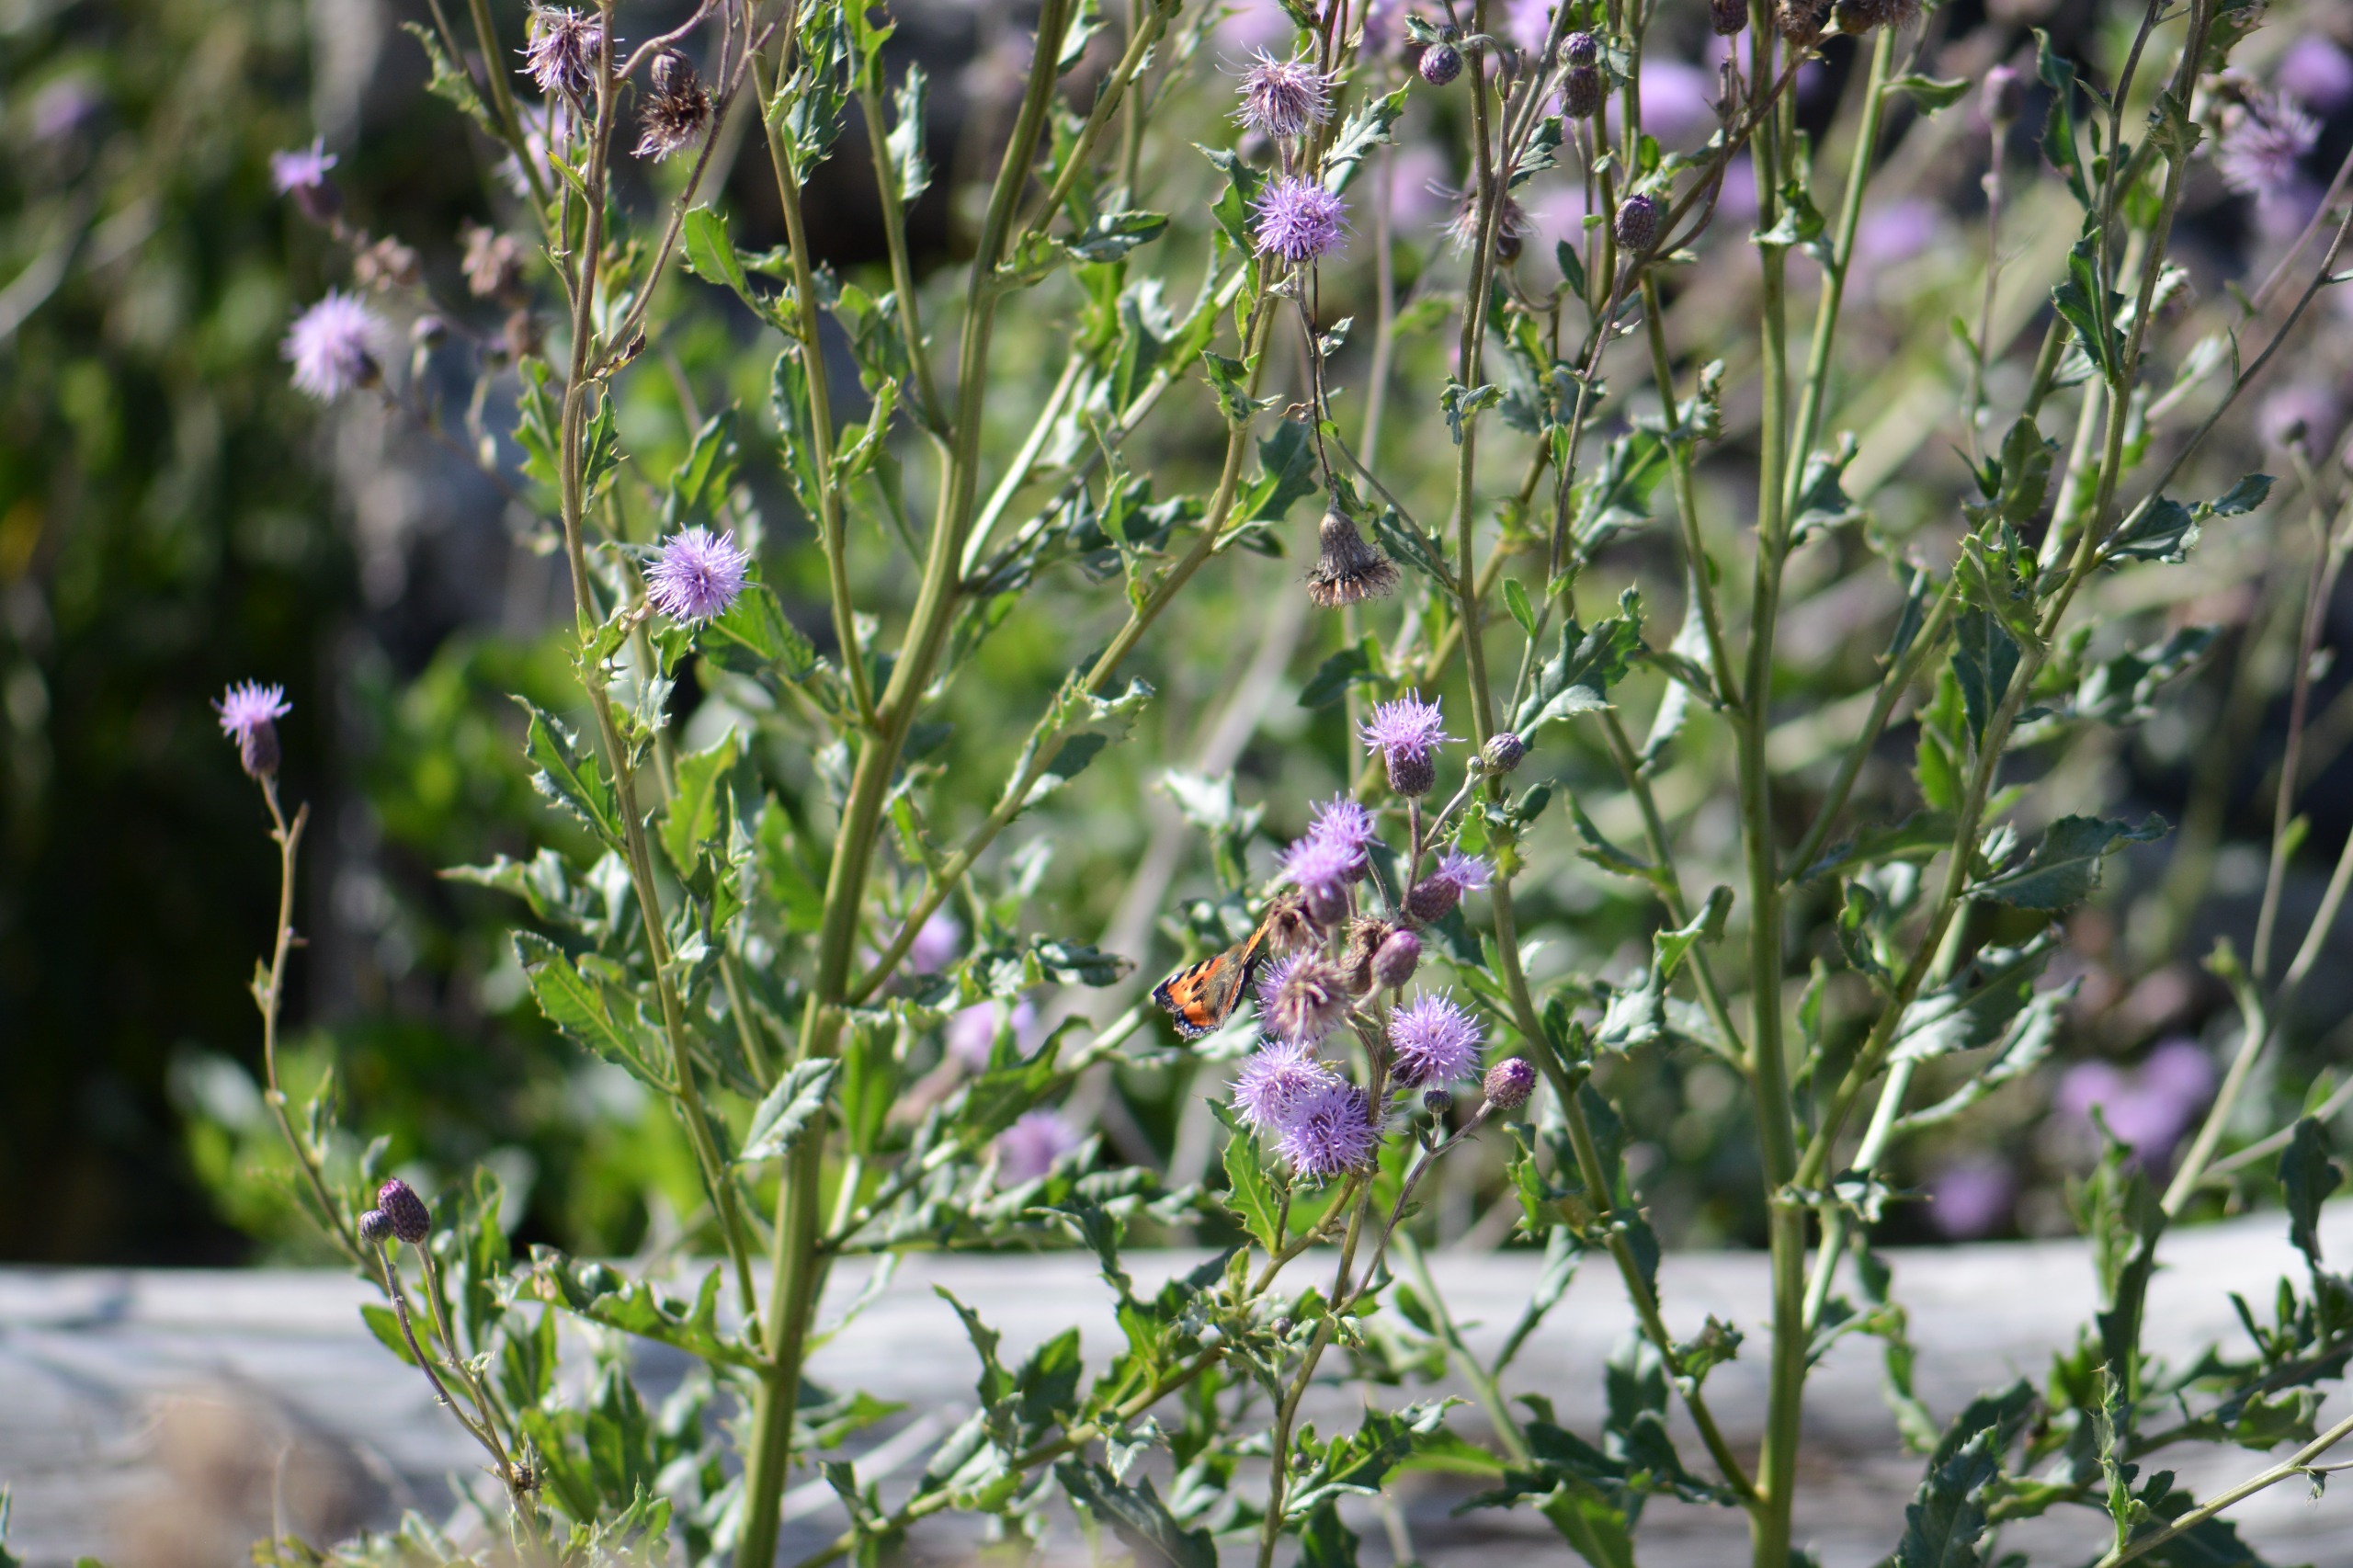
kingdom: Animalia
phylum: Arthropoda
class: Insecta
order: Lepidoptera
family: Nymphalidae
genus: Aglais
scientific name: Aglais urticae
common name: Nældens takvinge
